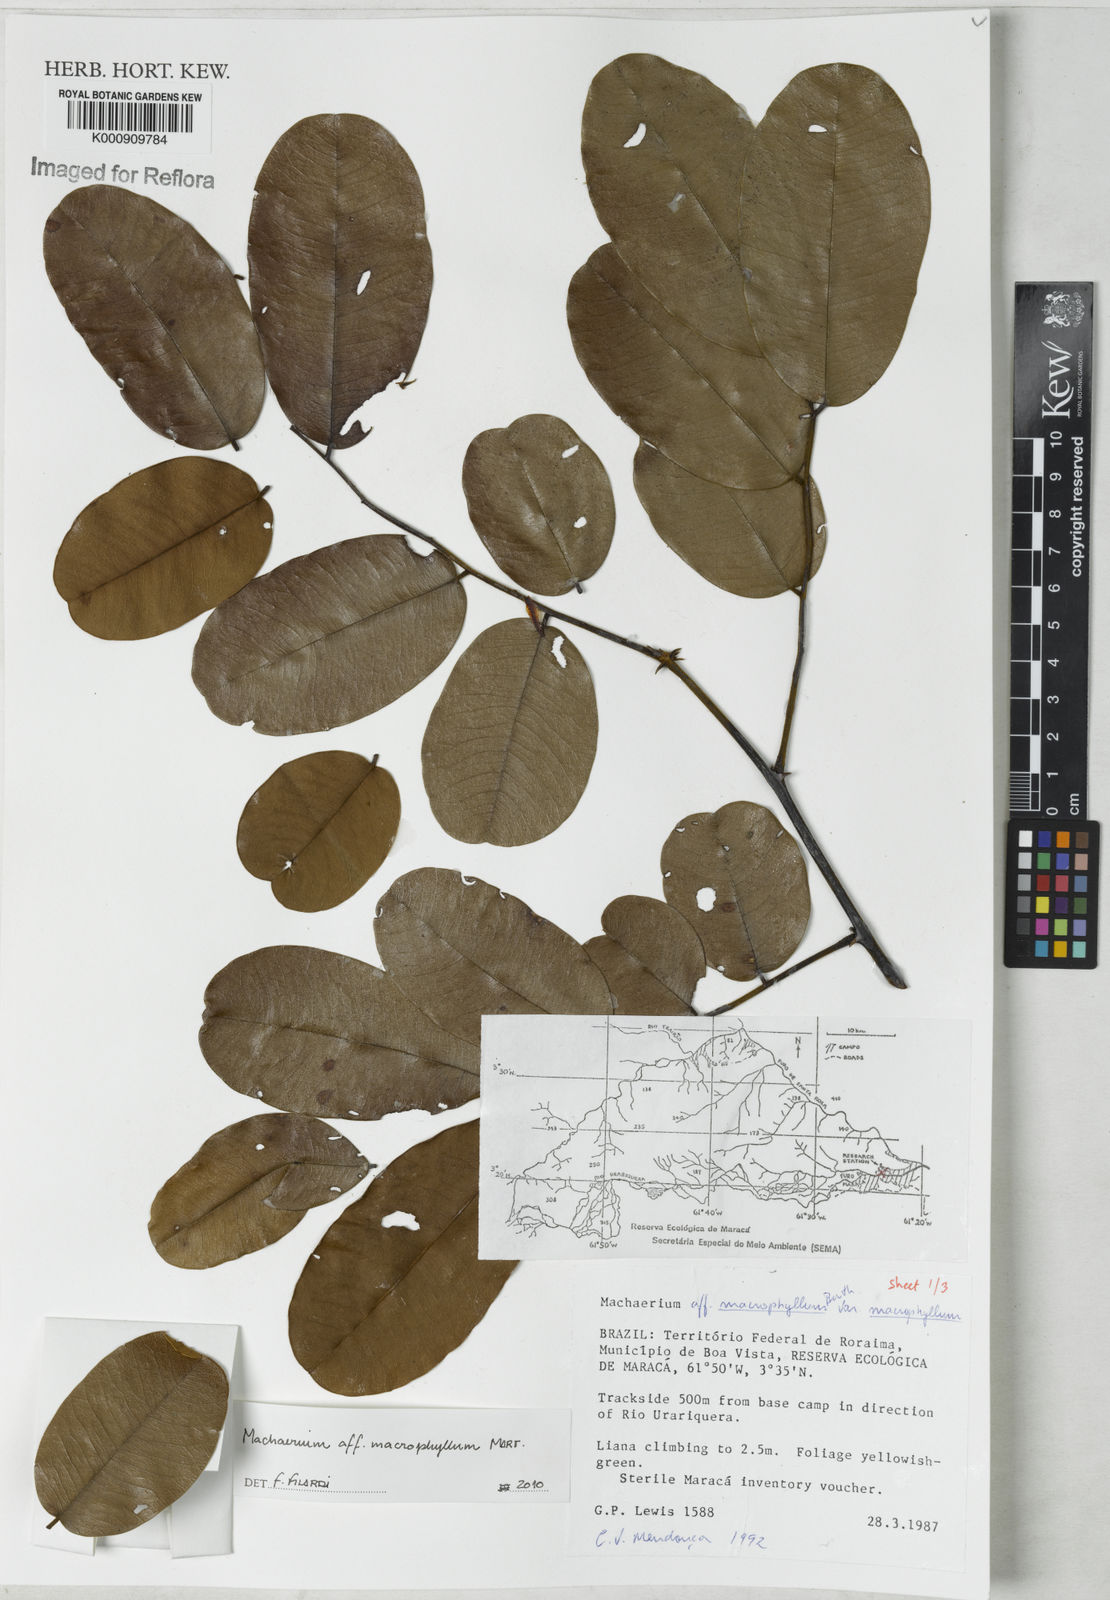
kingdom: Plantae
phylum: Tracheophyta
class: Magnoliopsida
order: Fabales
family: Fabaceae
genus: Machaerium
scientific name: Machaerium macrophyllum
